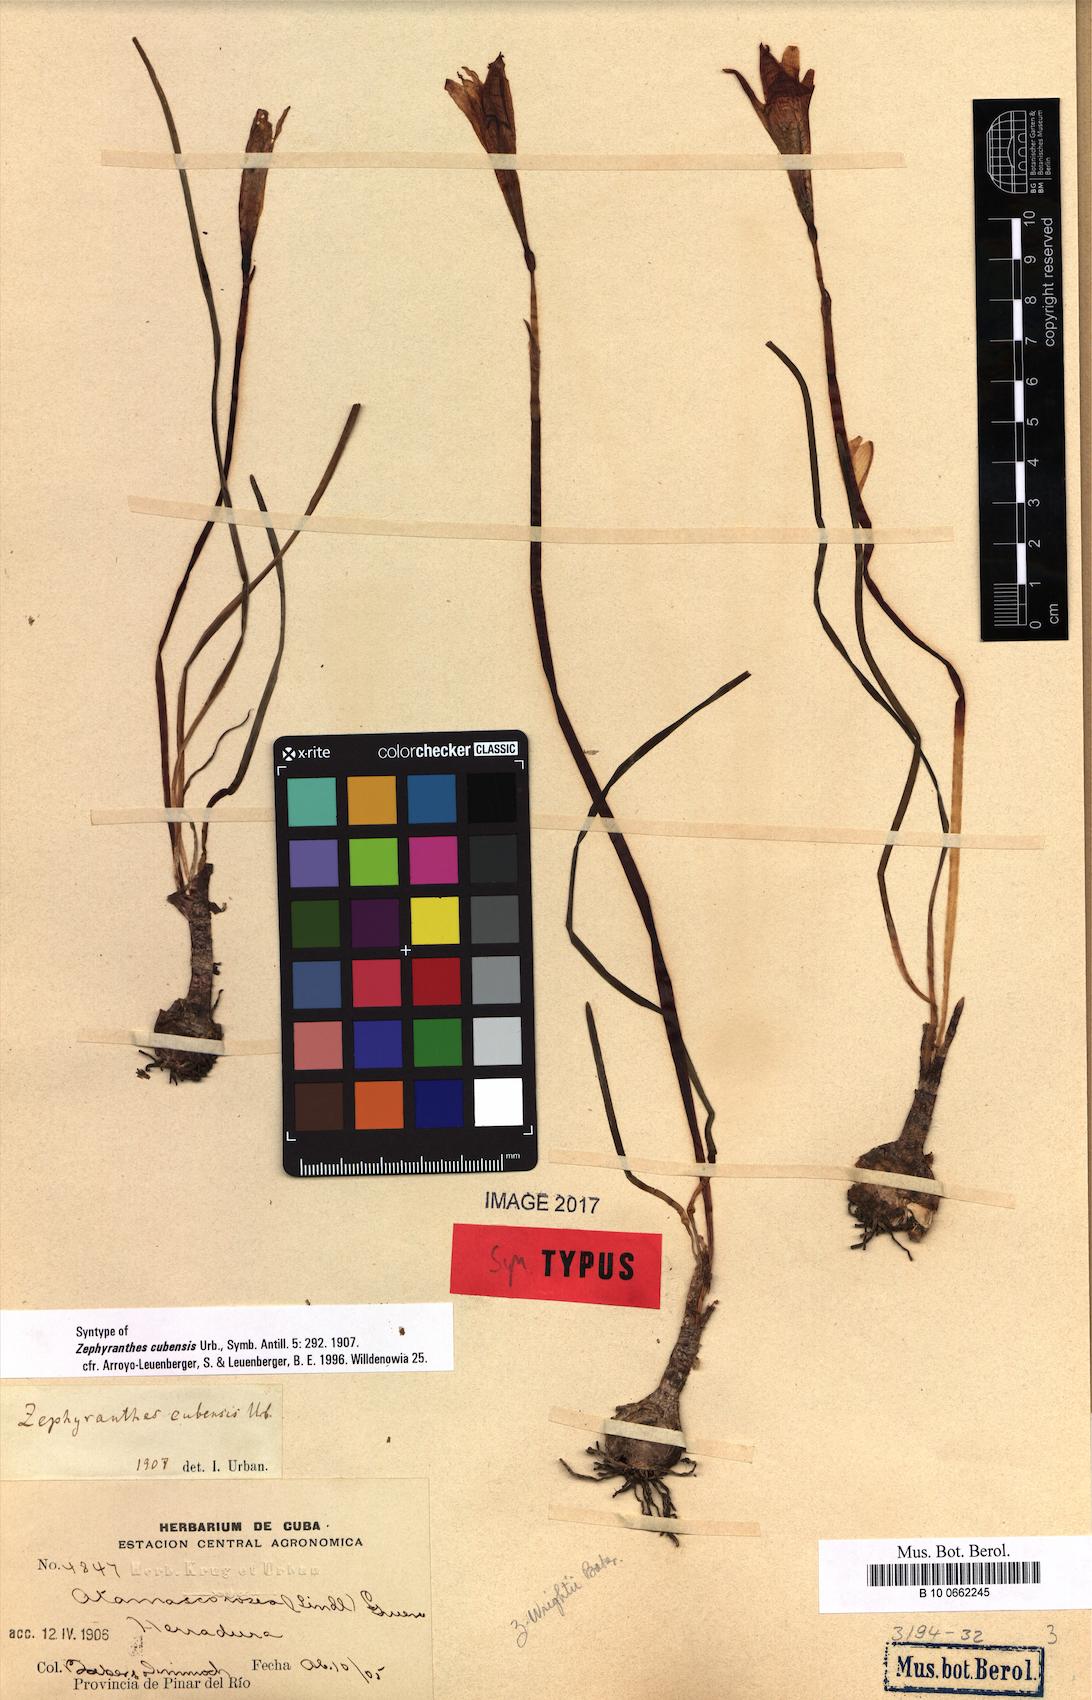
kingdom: Plantae
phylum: Tracheophyta
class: Liliopsida
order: Asparagales
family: Amaryllidaceae
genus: Zephyranthes
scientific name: Zephyranthes cubensis
